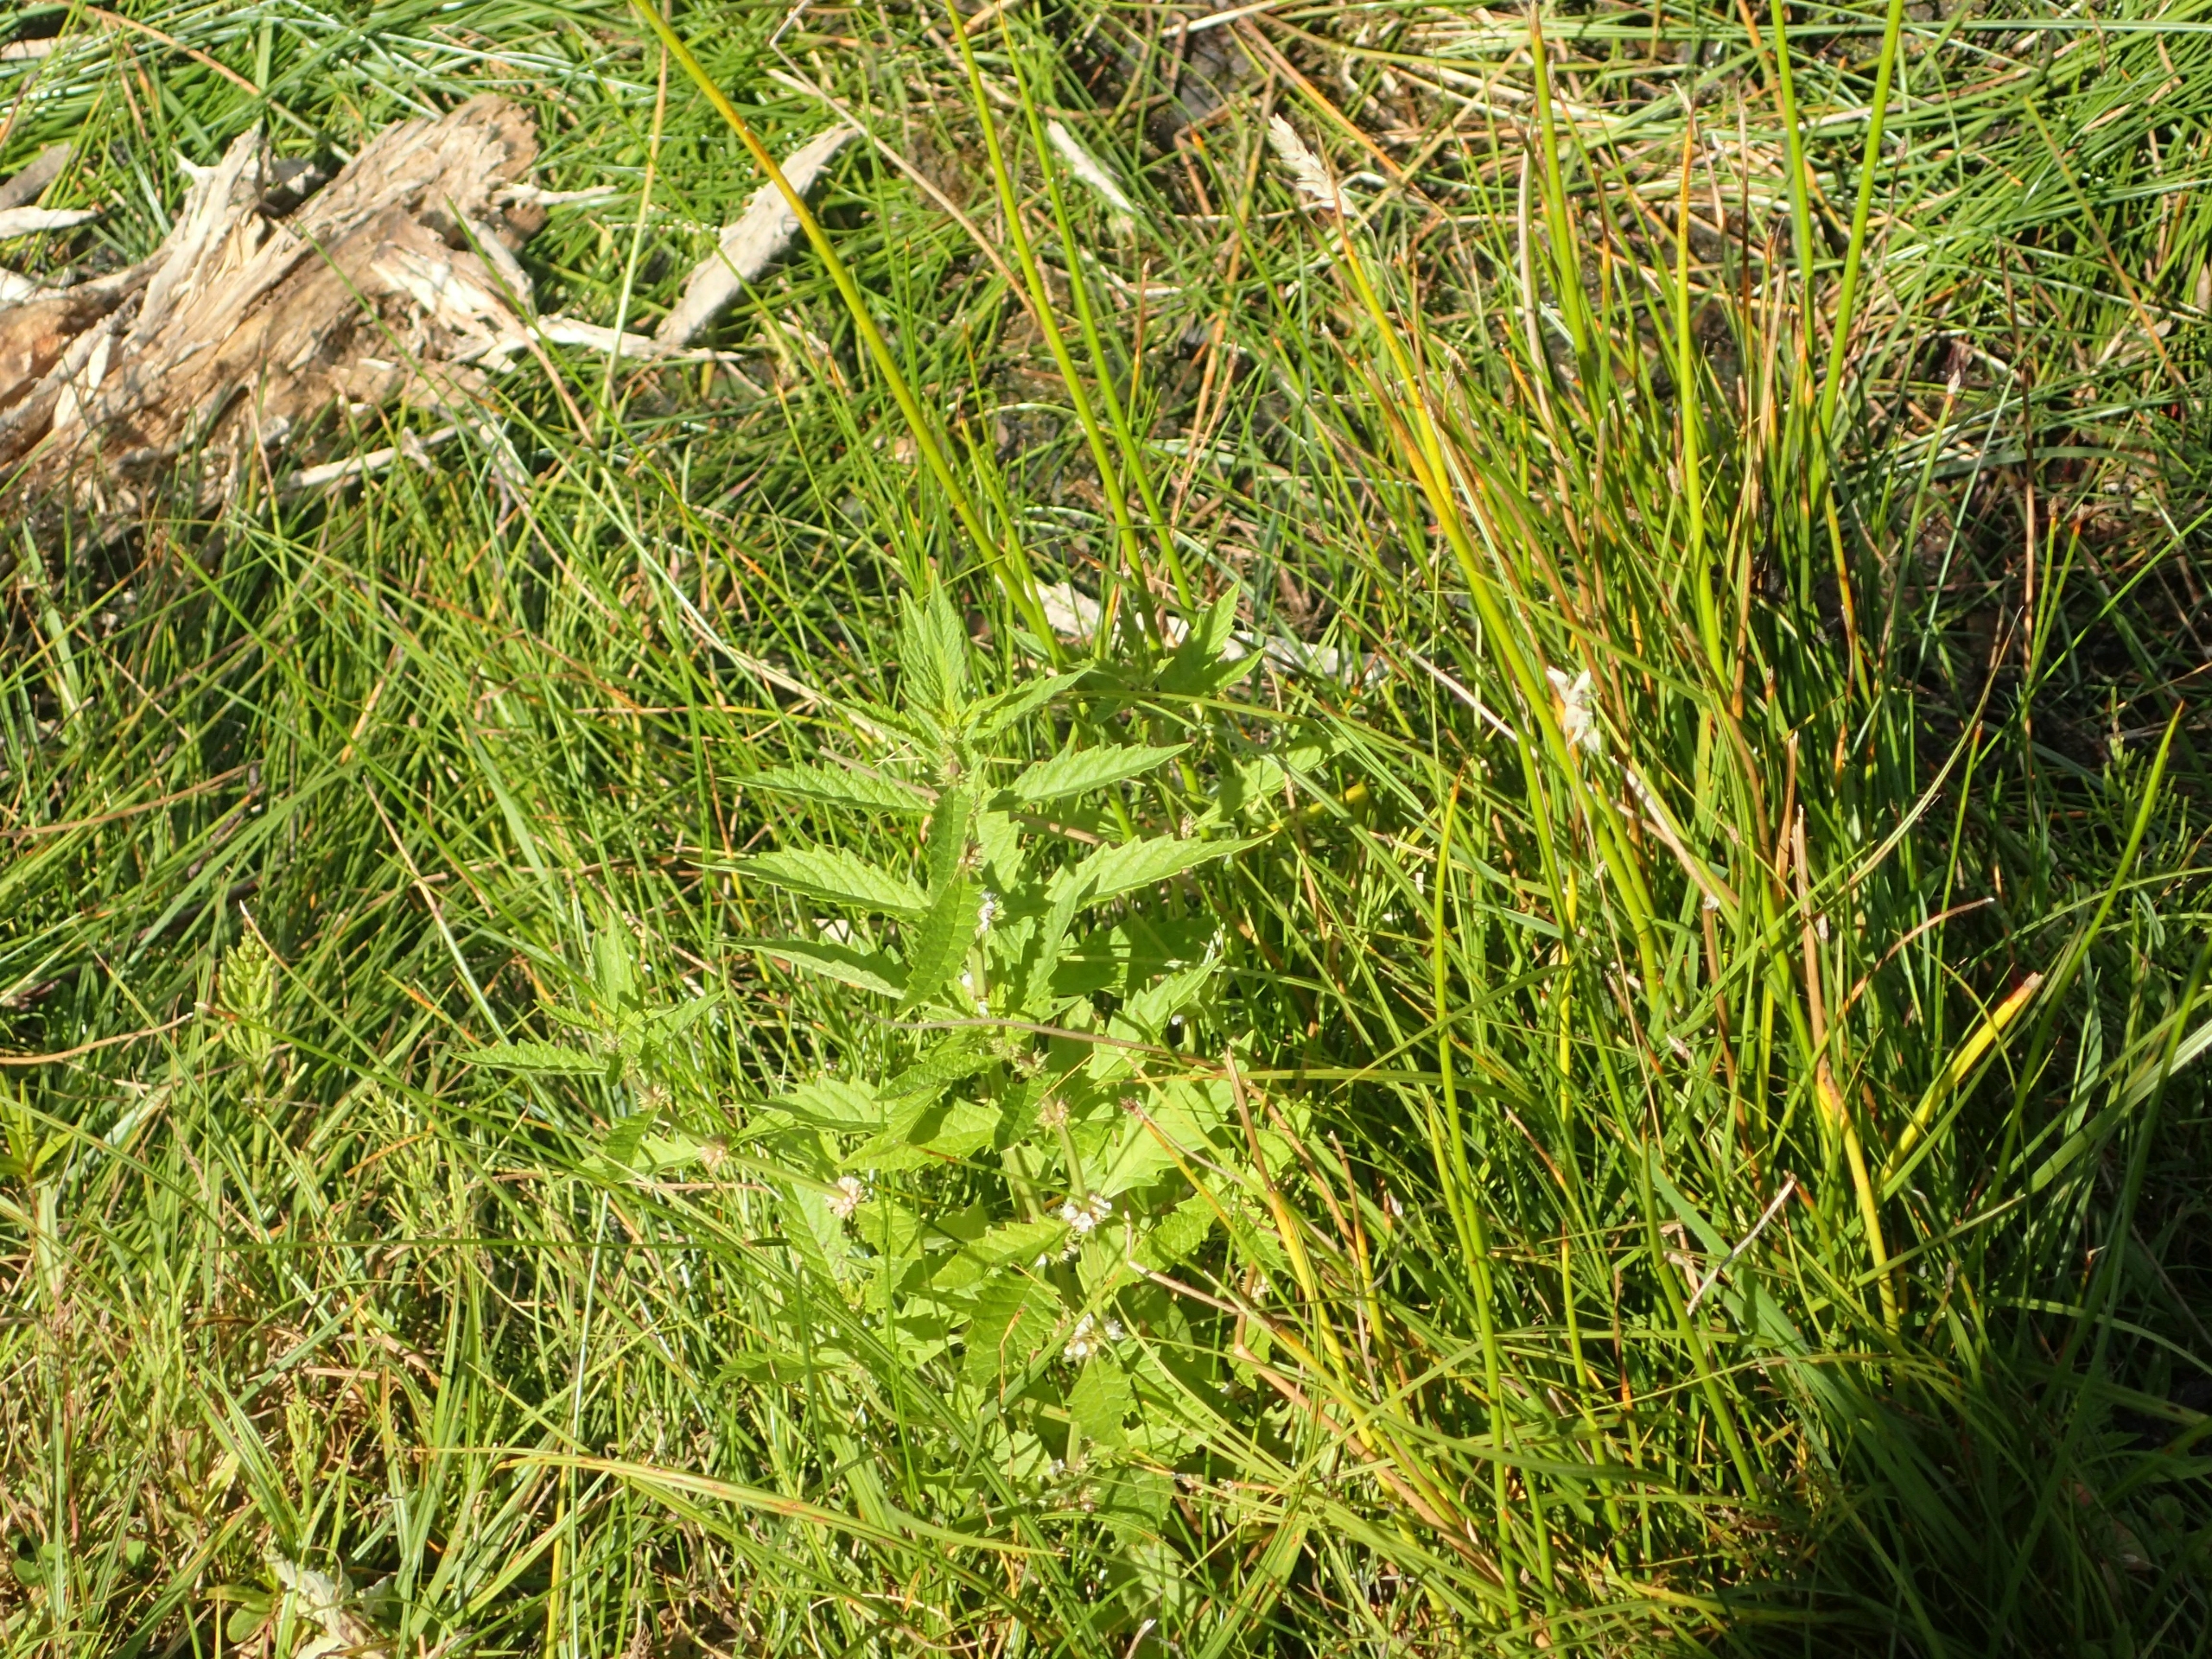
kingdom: Plantae
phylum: Tracheophyta
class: Magnoliopsida
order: Lamiales
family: Lamiaceae
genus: Lycopus
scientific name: Lycopus europaeus
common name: Sværtevæld
